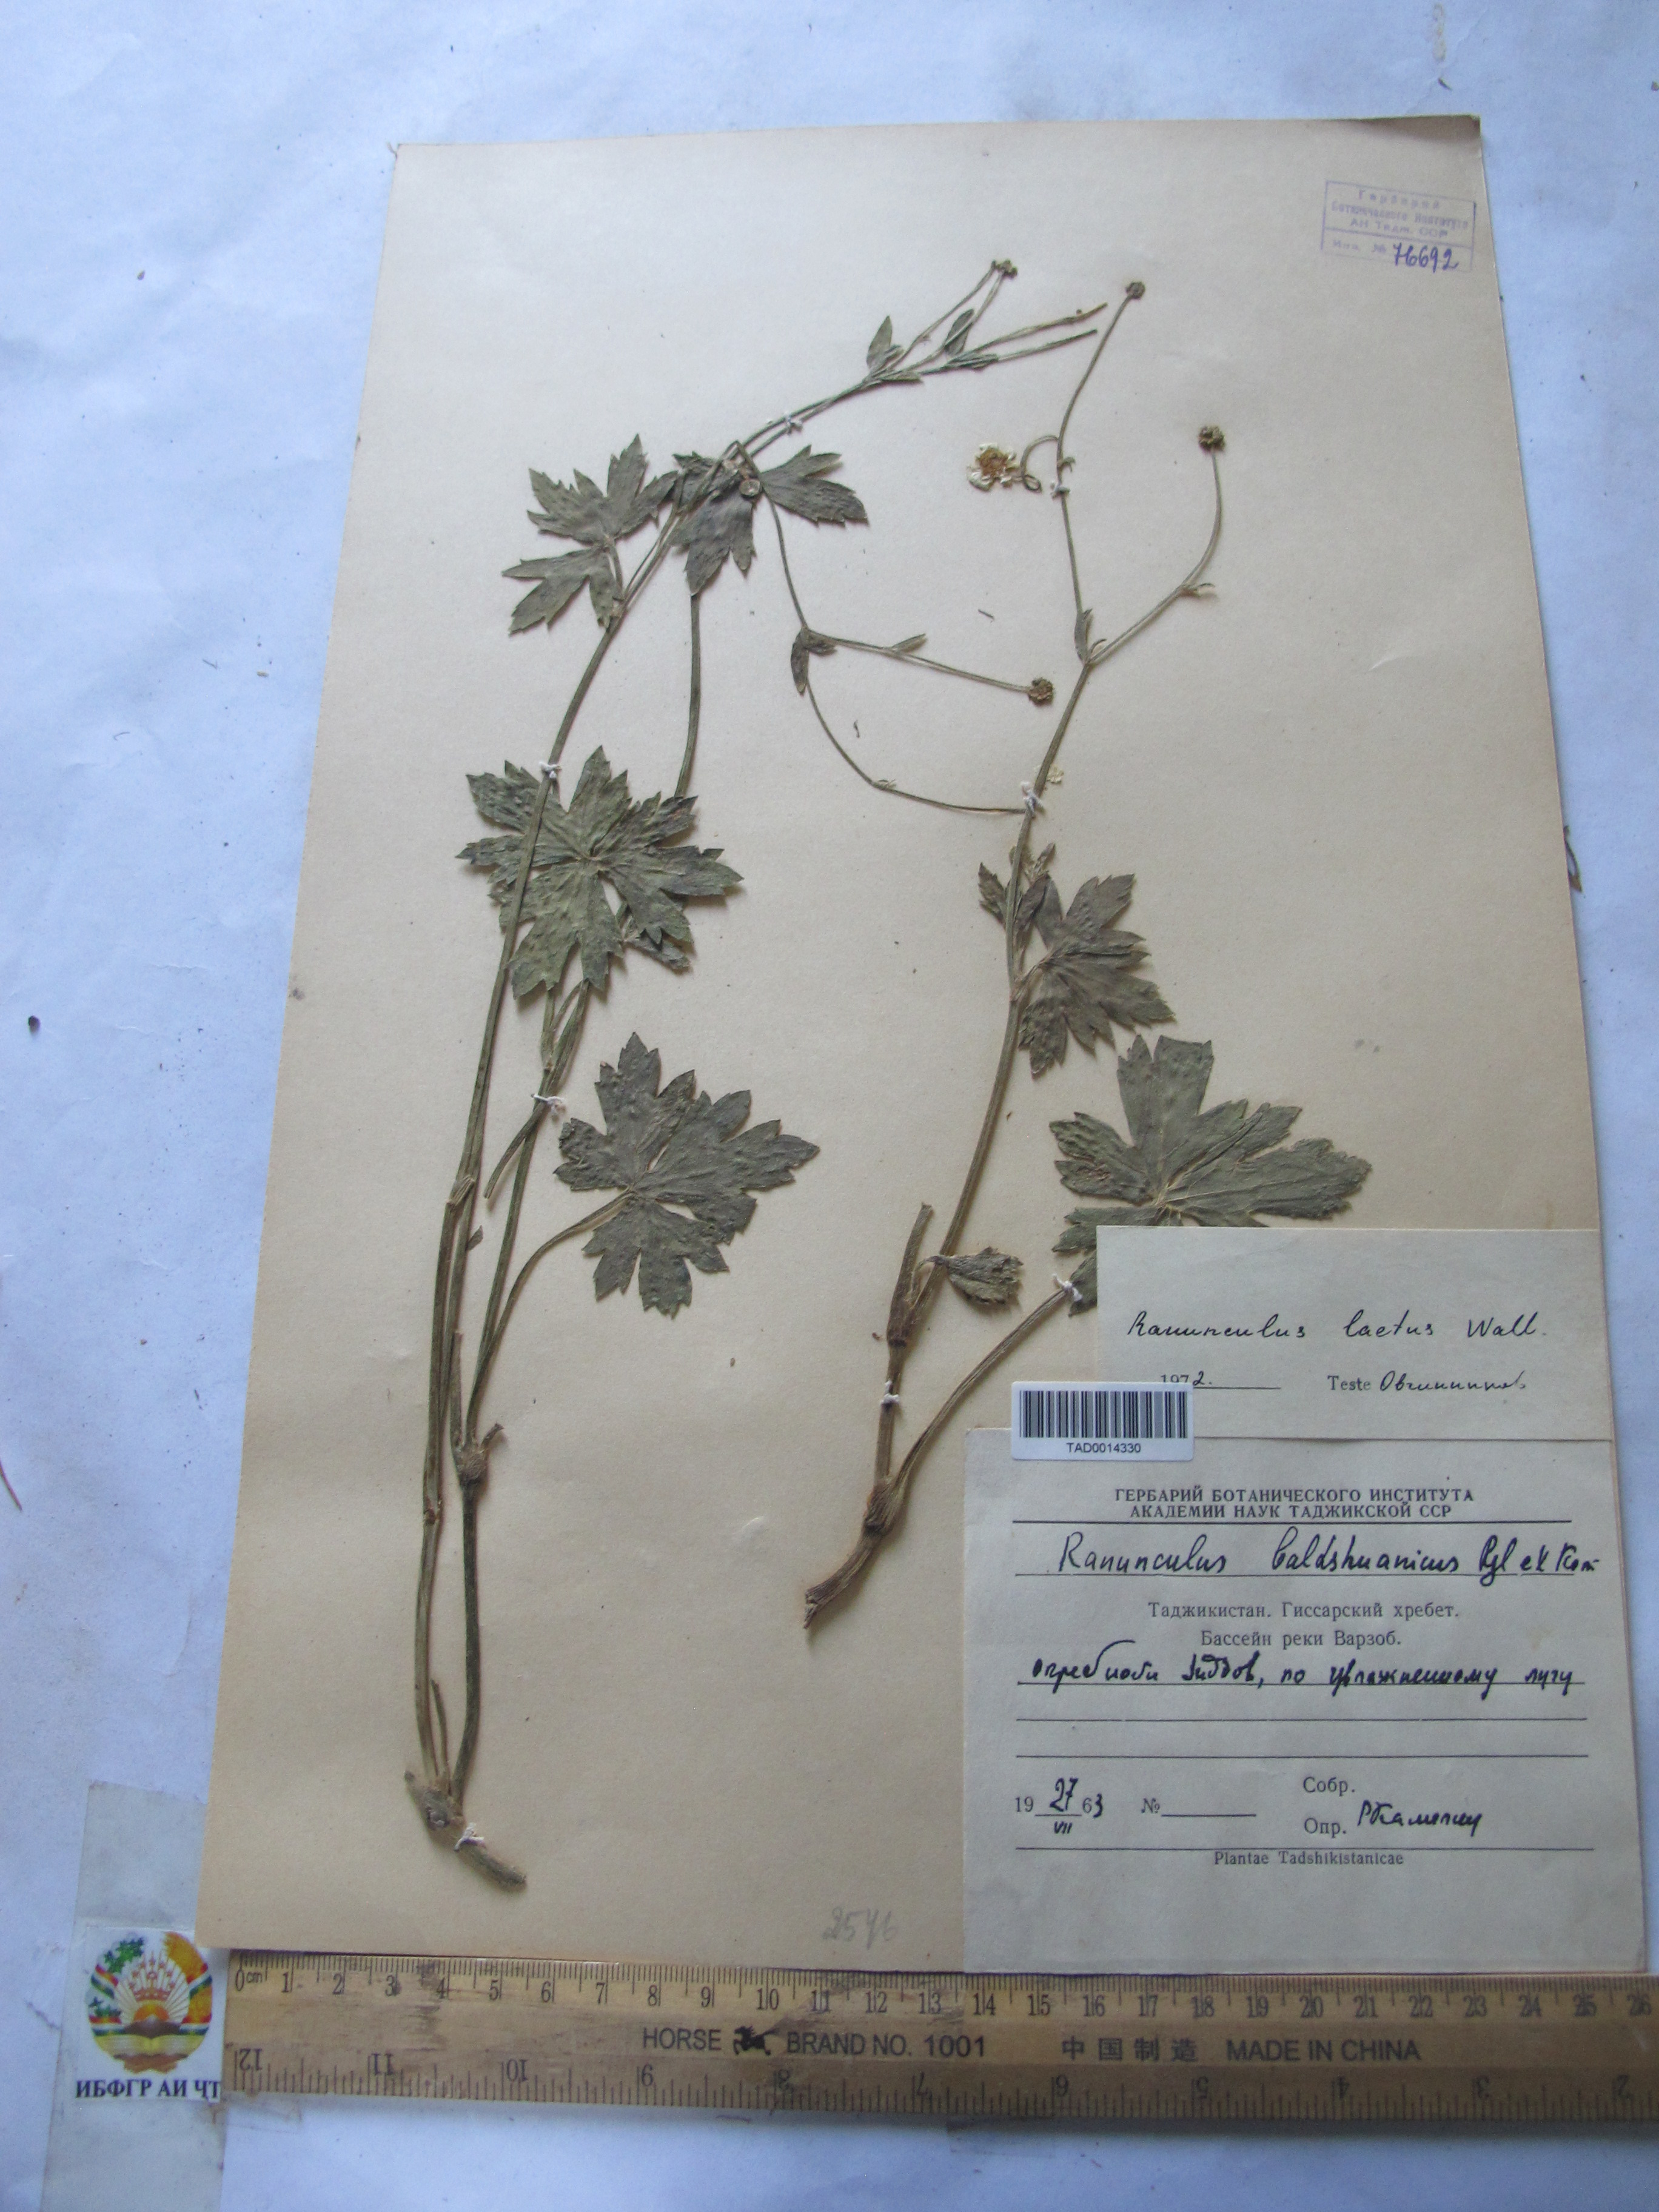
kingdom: Plantae
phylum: Tracheophyta
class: Magnoliopsida
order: Ranunculales
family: Ranunculaceae
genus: Ranunculus
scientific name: Ranunculus distans
